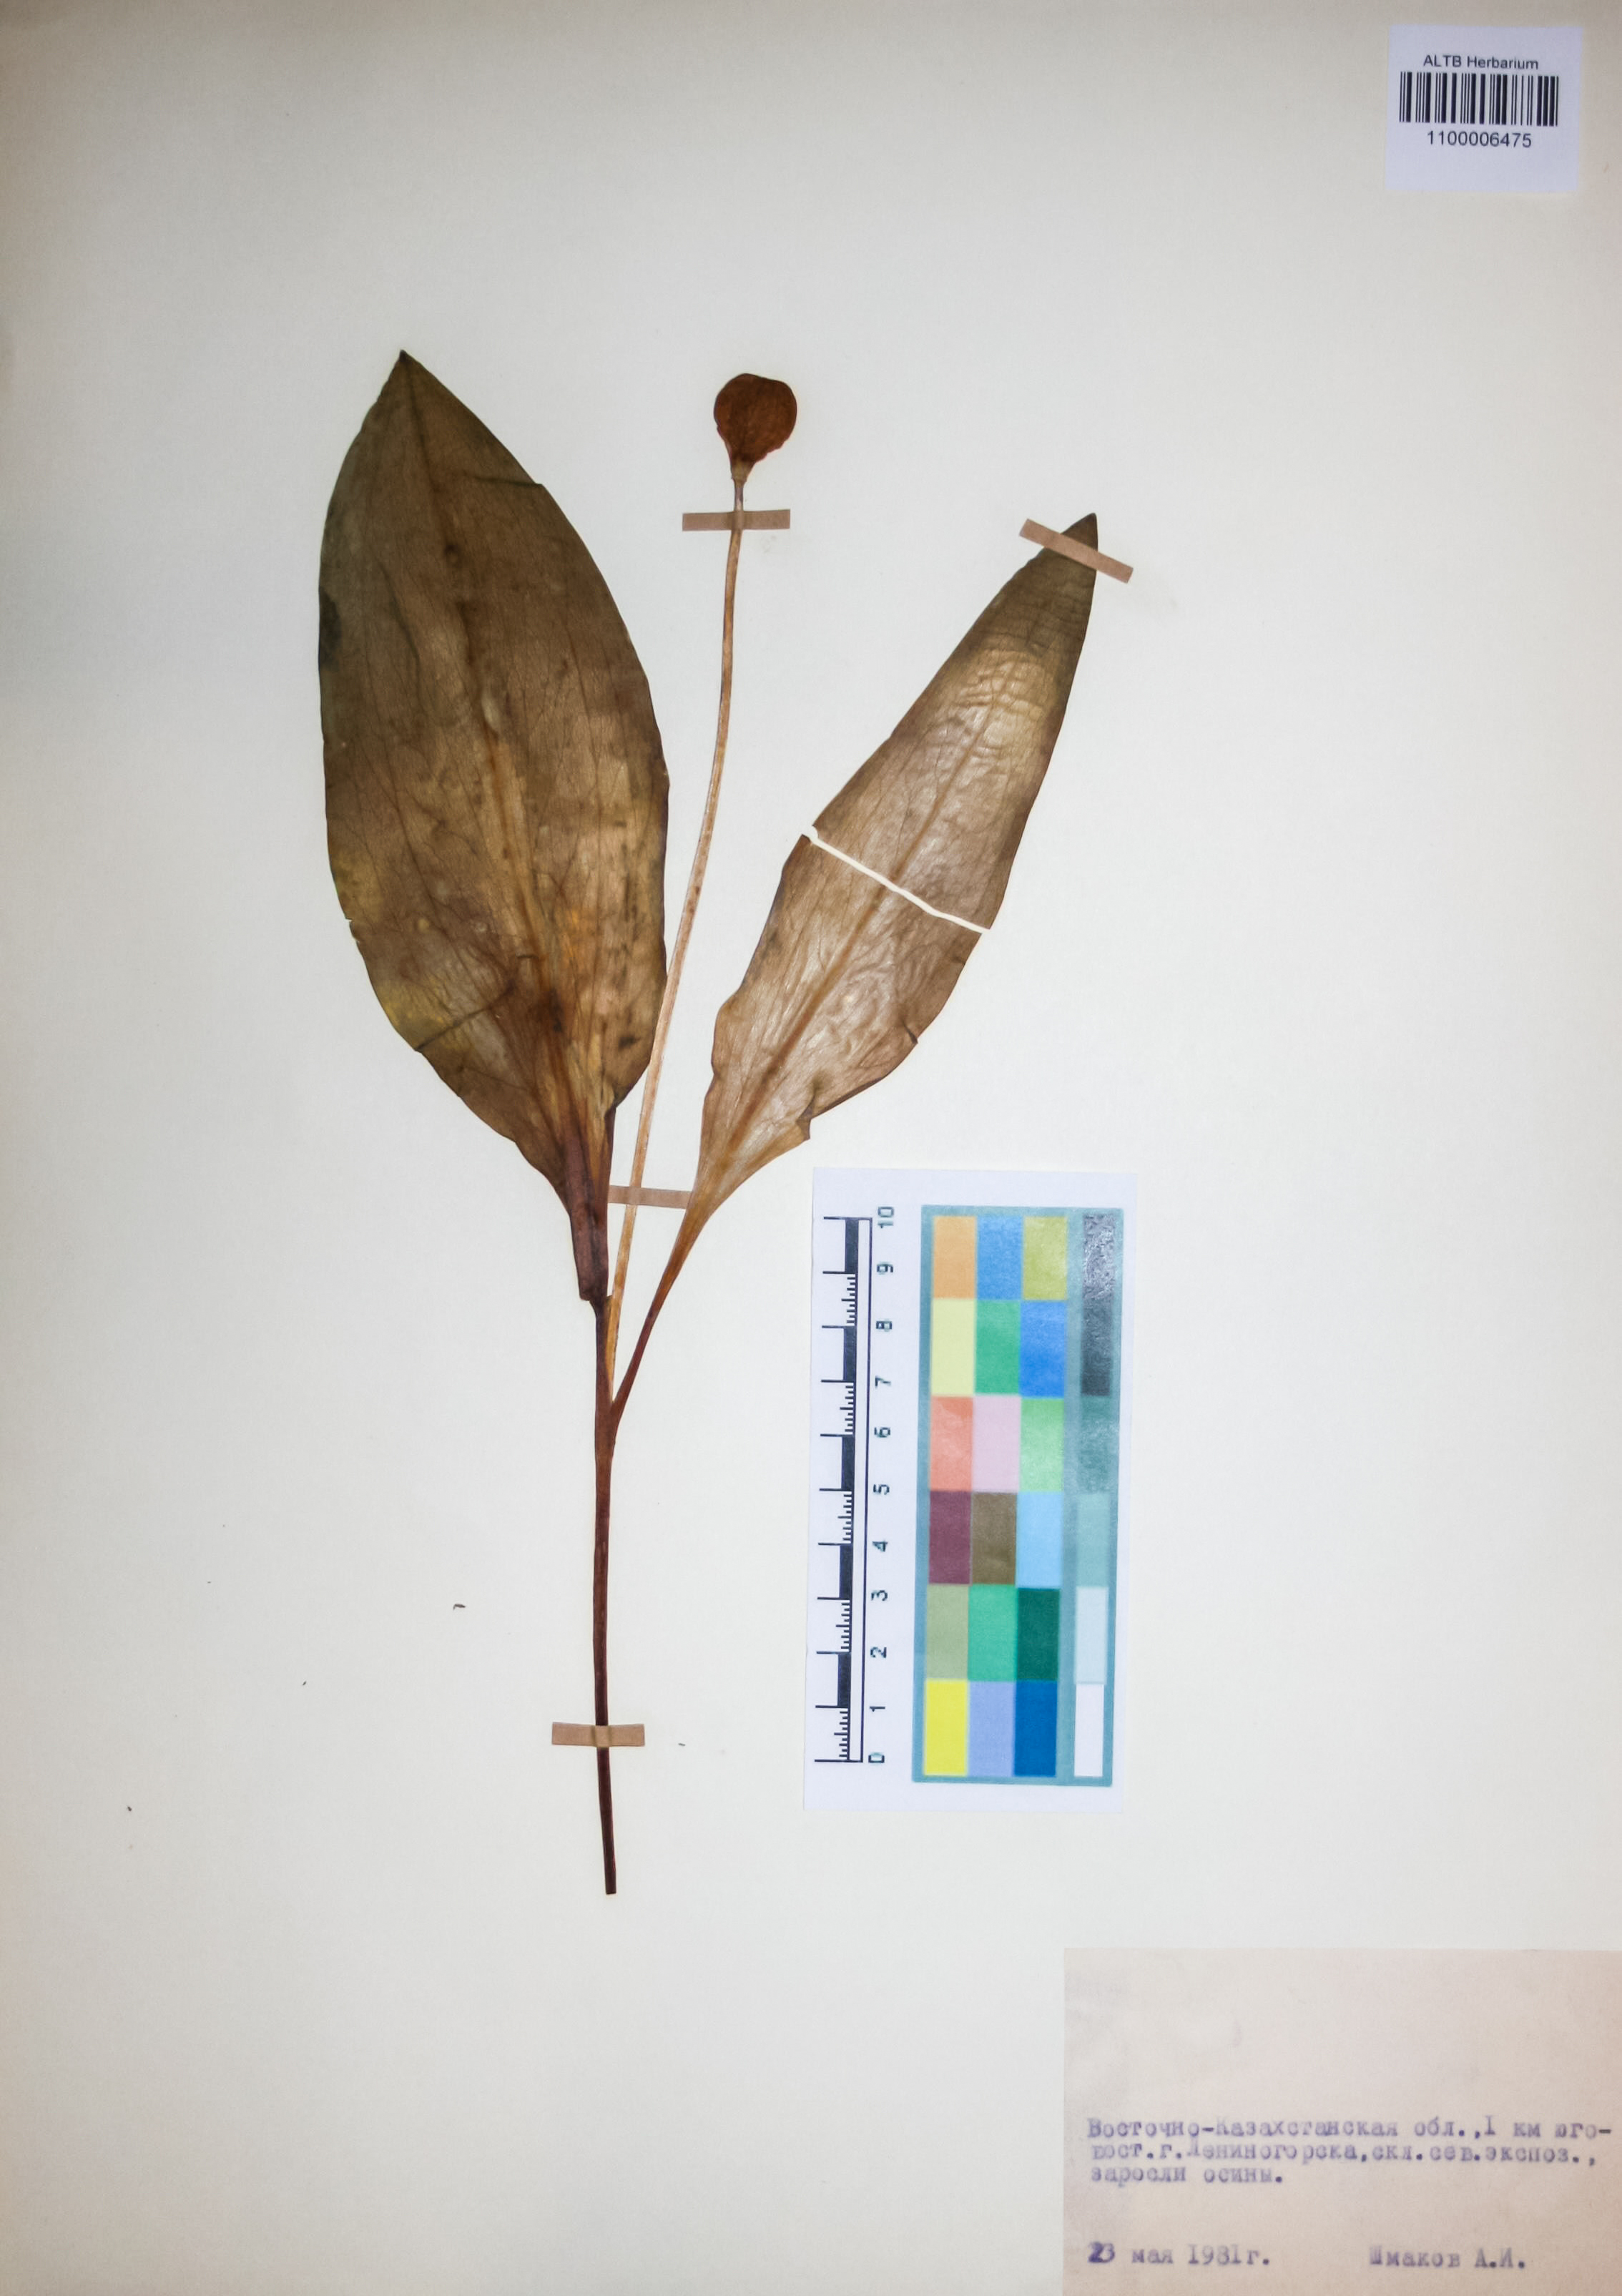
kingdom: Plantae
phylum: Tracheophyta
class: Liliopsida
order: Liliales
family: Liliaceae
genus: Erythronium
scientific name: Erythronium sibiricum
